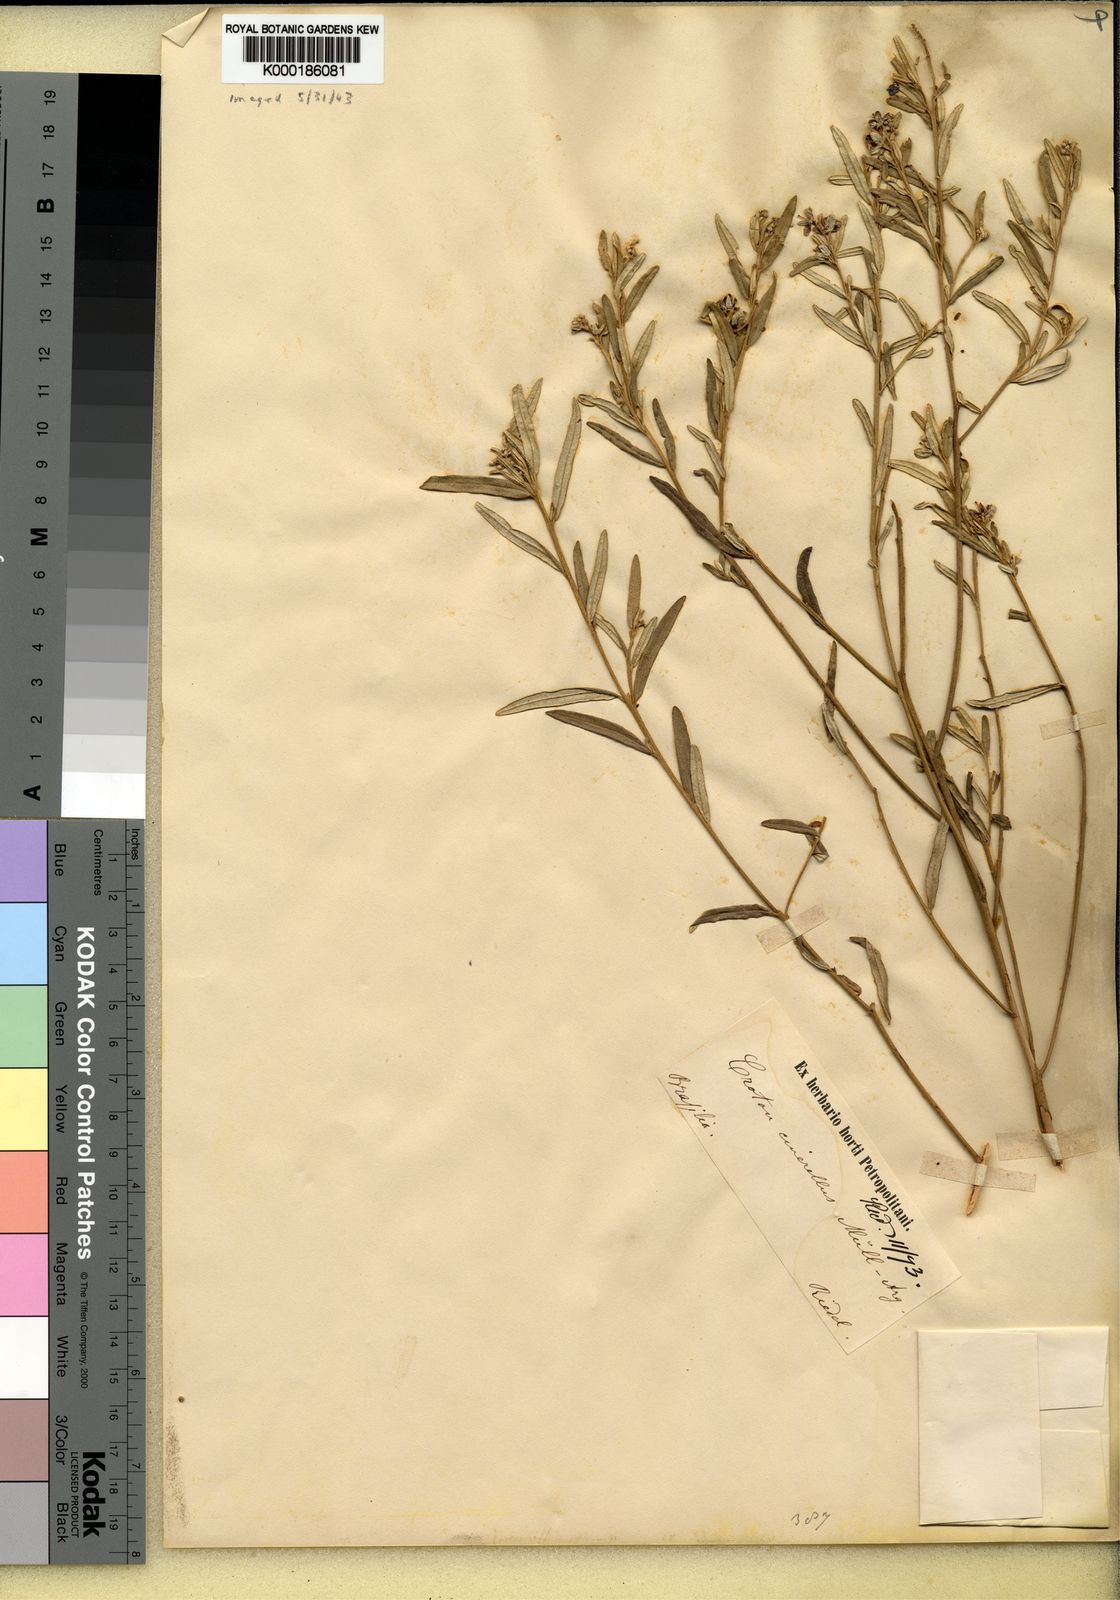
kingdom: Plantae
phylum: Tracheophyta
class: Magnoliopsida
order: Malpighiales
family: Euphorbiaceae
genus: Croton
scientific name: Croton
